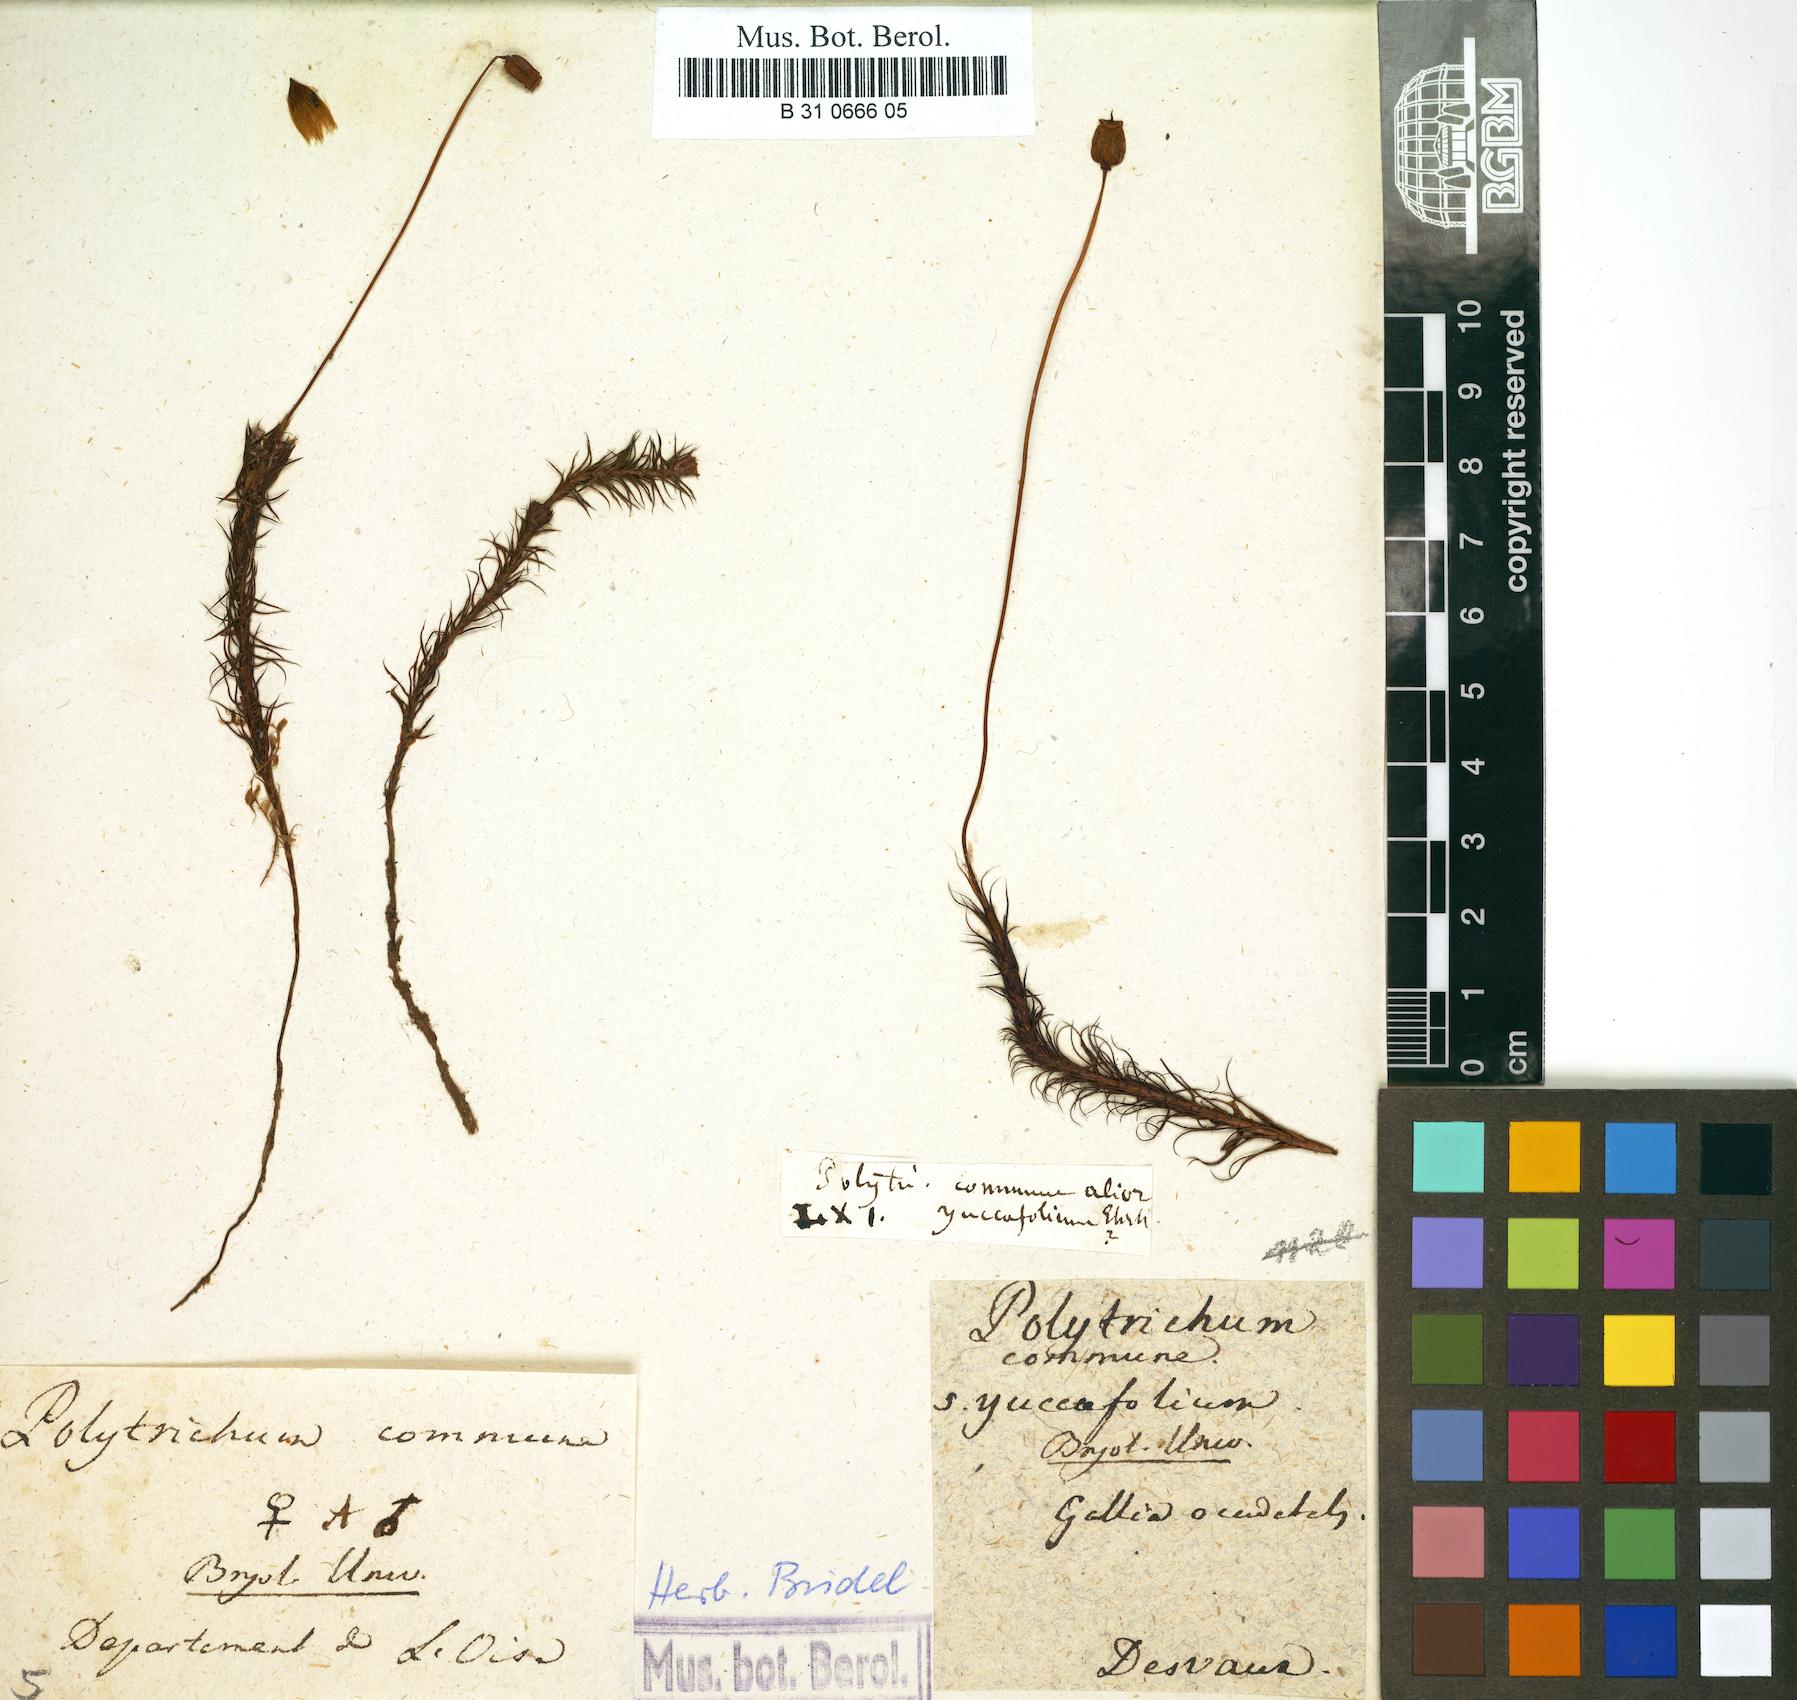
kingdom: Plantae
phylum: Bryophyta
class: Polytrichopsida
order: Polytrichales
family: Polytrichaceae
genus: Polytrichum
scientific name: Polytrichum commune
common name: Common haircap
